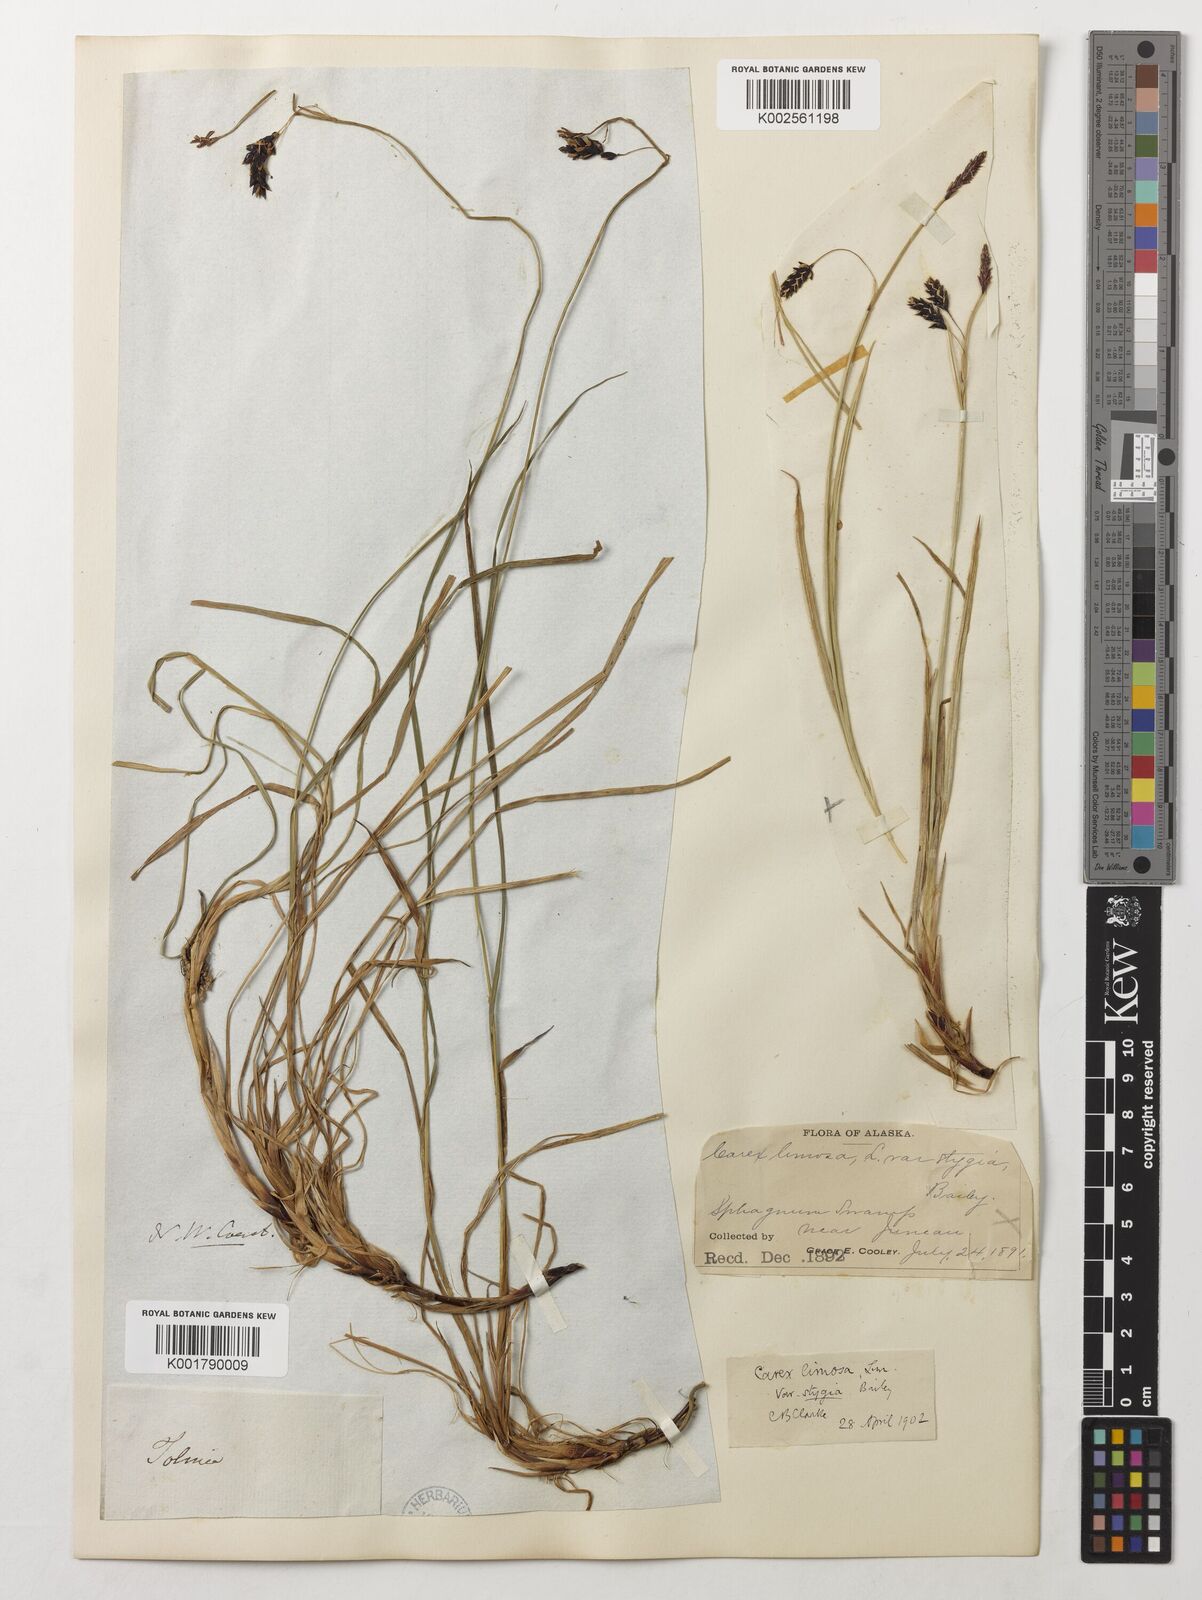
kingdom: Plantae
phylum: Tracheophyta
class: Liliopsida
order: Poales
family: Cyperaceae
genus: Carex
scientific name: Carex stygia
